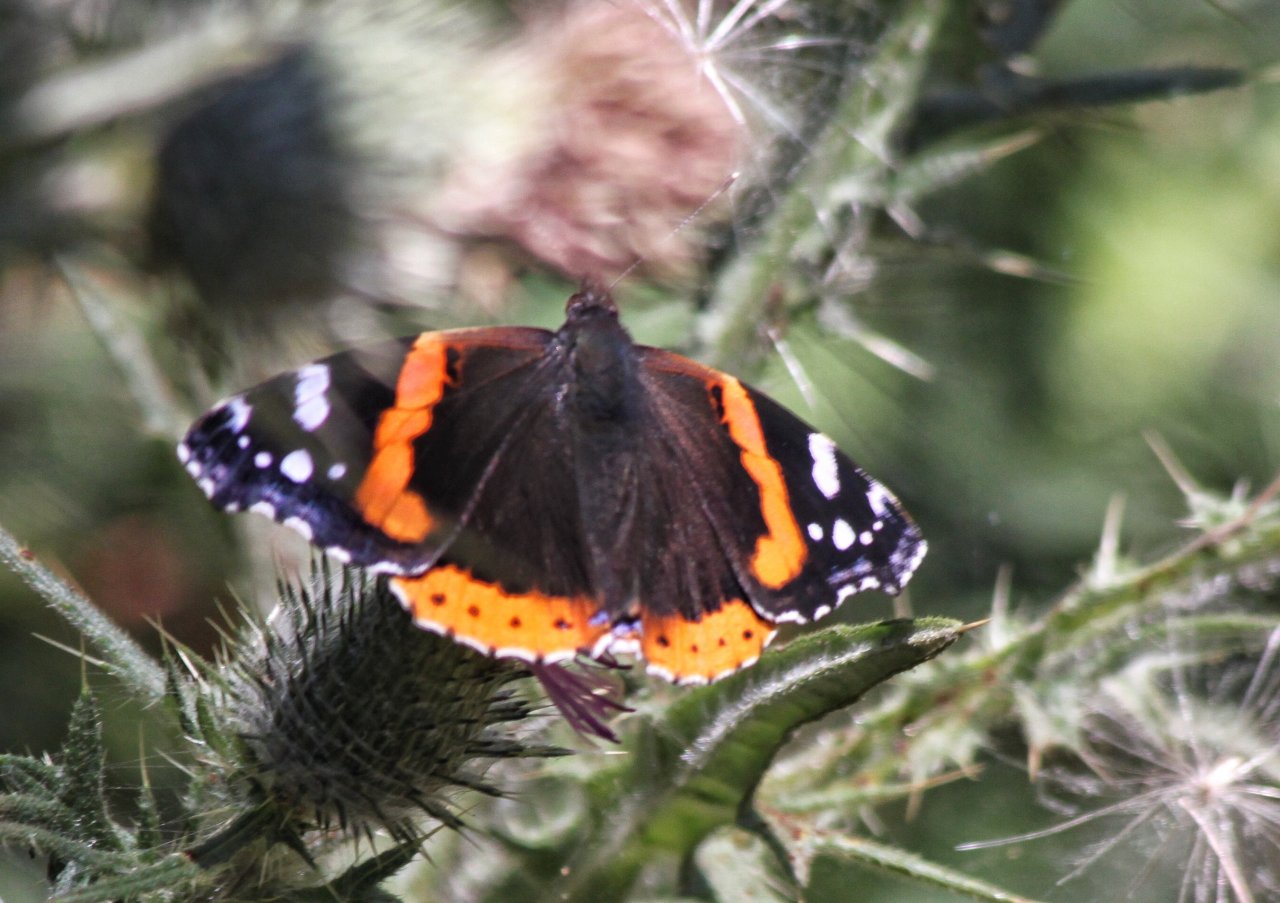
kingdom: Animalia
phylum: Arthropoda
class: Insecta
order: Lepidoptera
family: Nymphalidae
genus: Vanessa
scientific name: Vanessa atalanta
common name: Red Admiral
